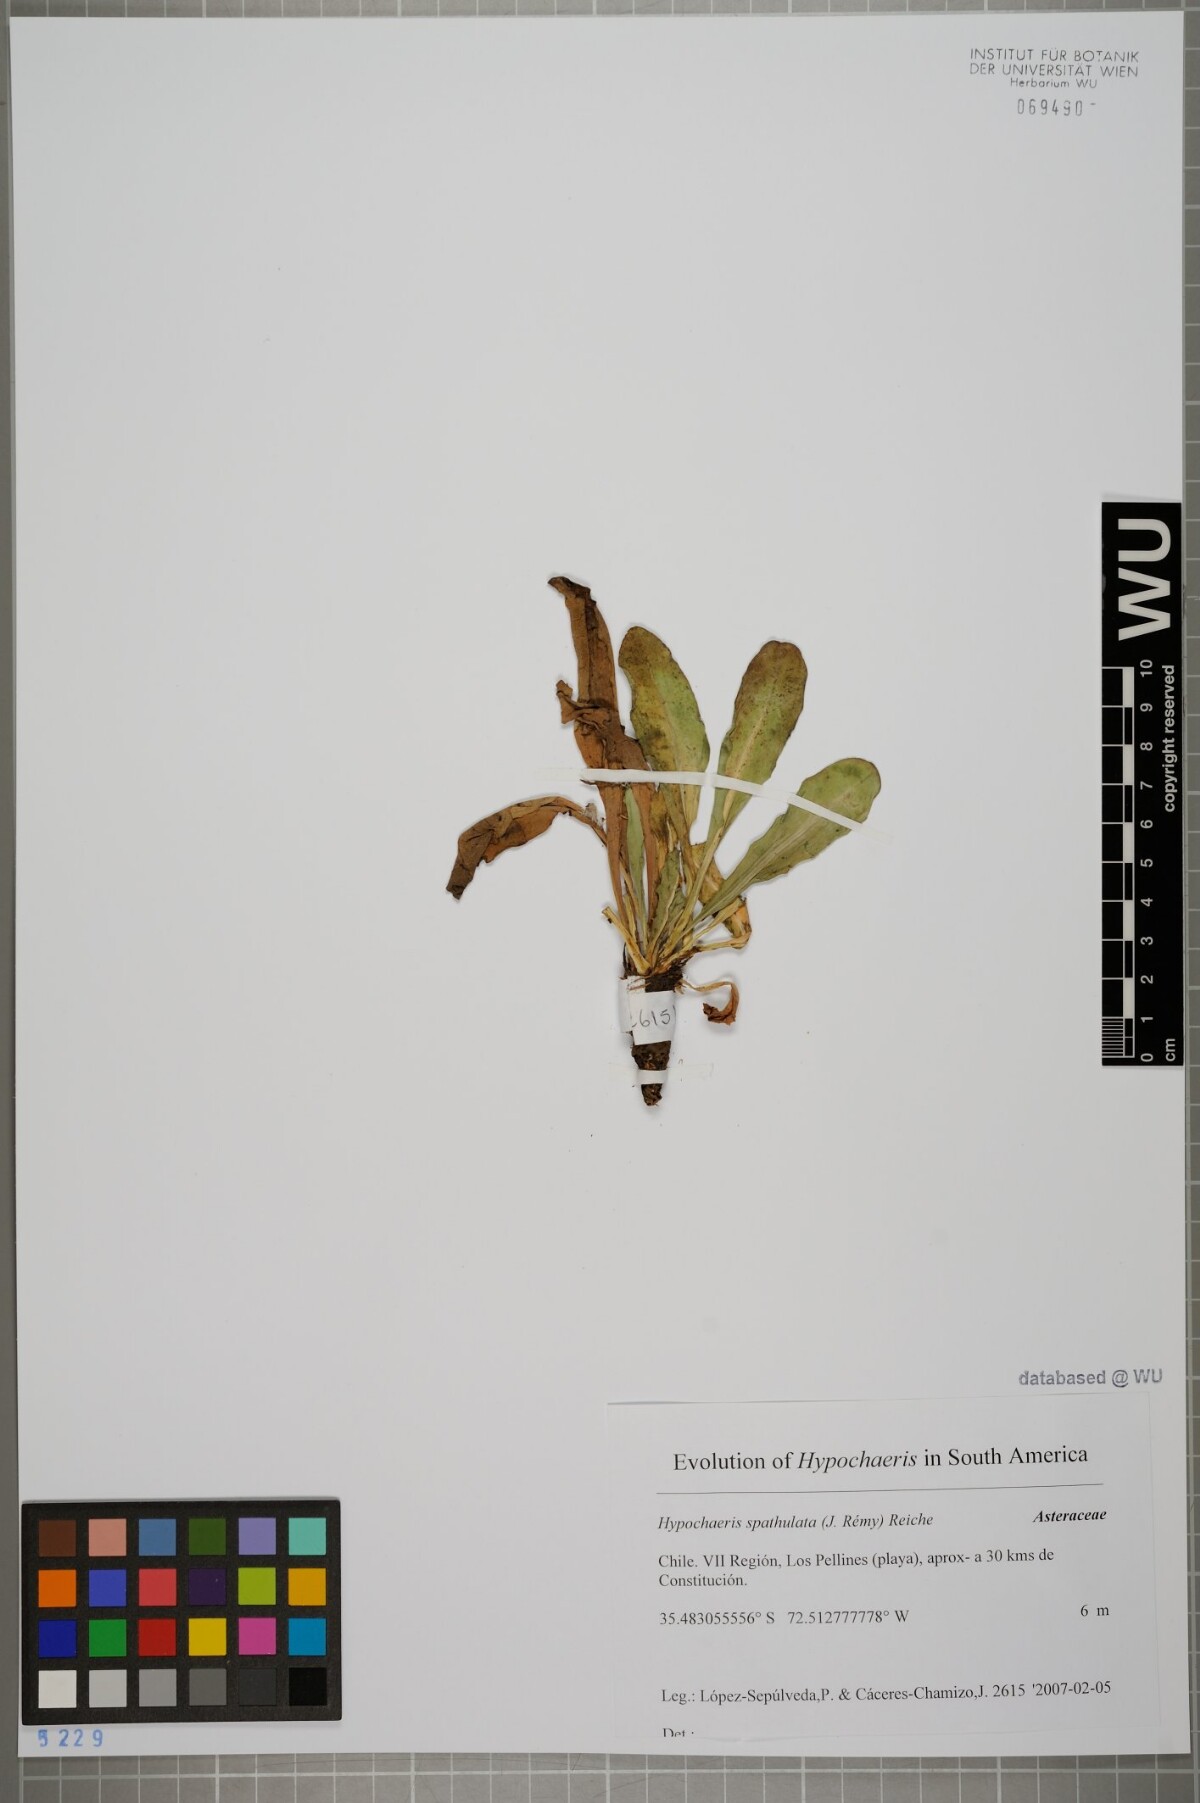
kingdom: Plantae
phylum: Tracheophyta
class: Magnoliopsida
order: Asterales
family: Asteraceae
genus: Hypochaeris
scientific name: Hypochaeris spathulata
